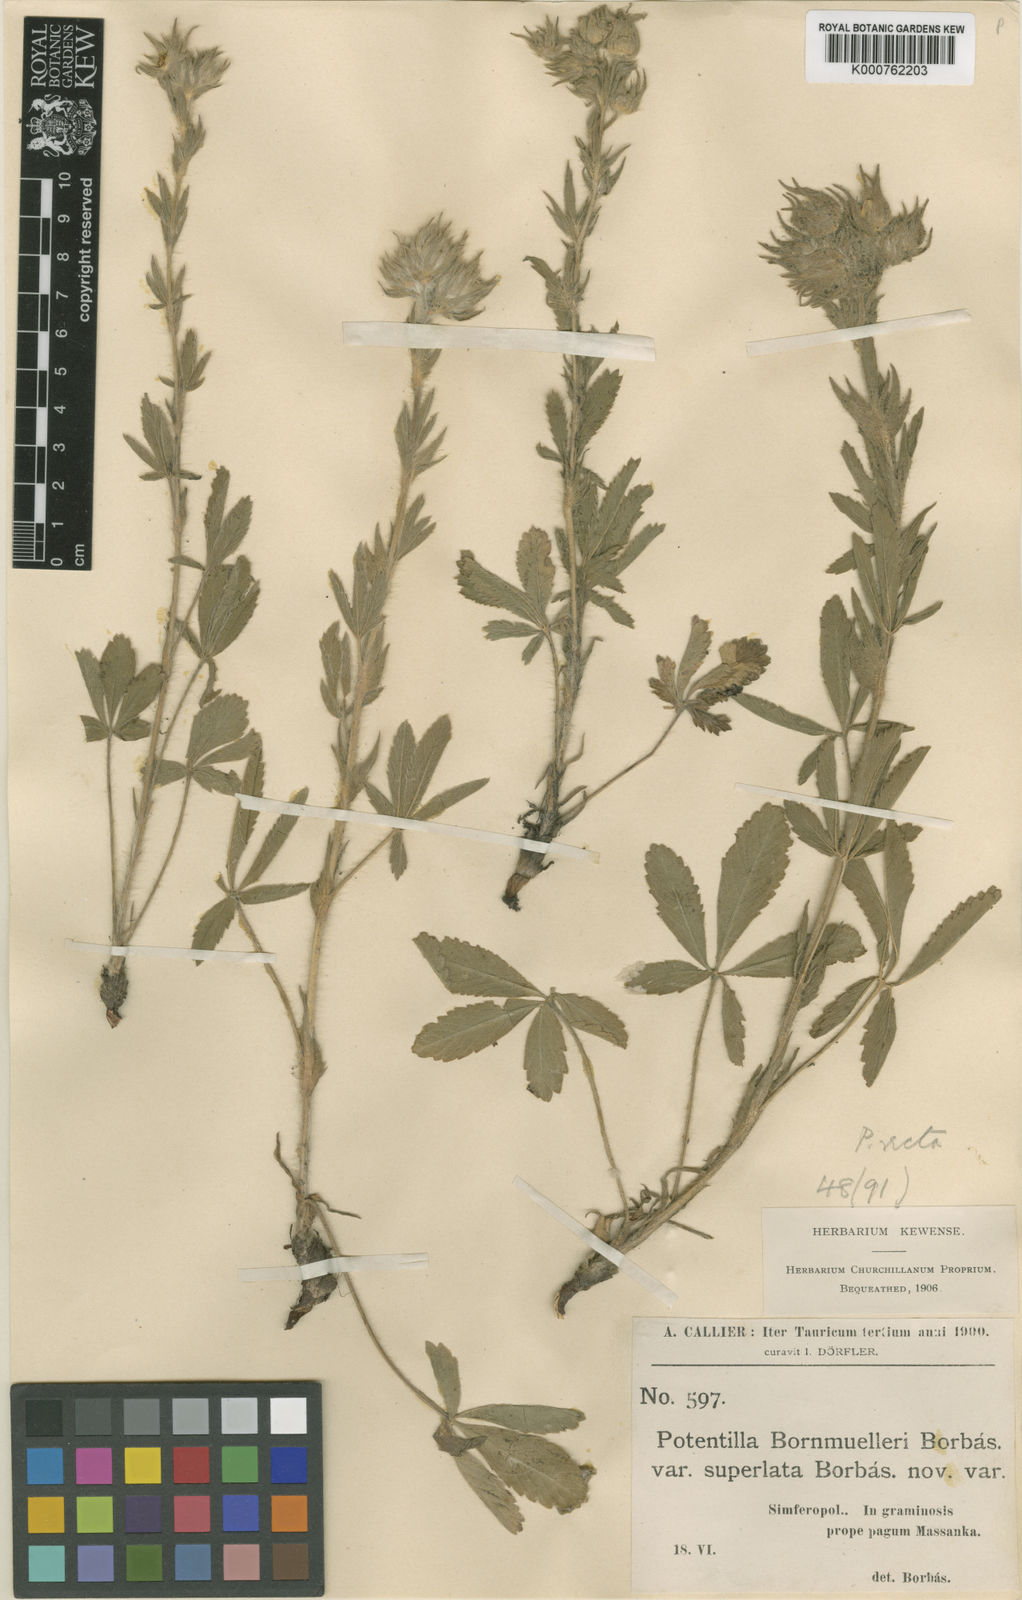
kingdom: Plantae
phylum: Tracheophyta
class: Magnoliopsida
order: Rosales
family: Rosaceae
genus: Potentilla
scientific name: Potentilla taurica
